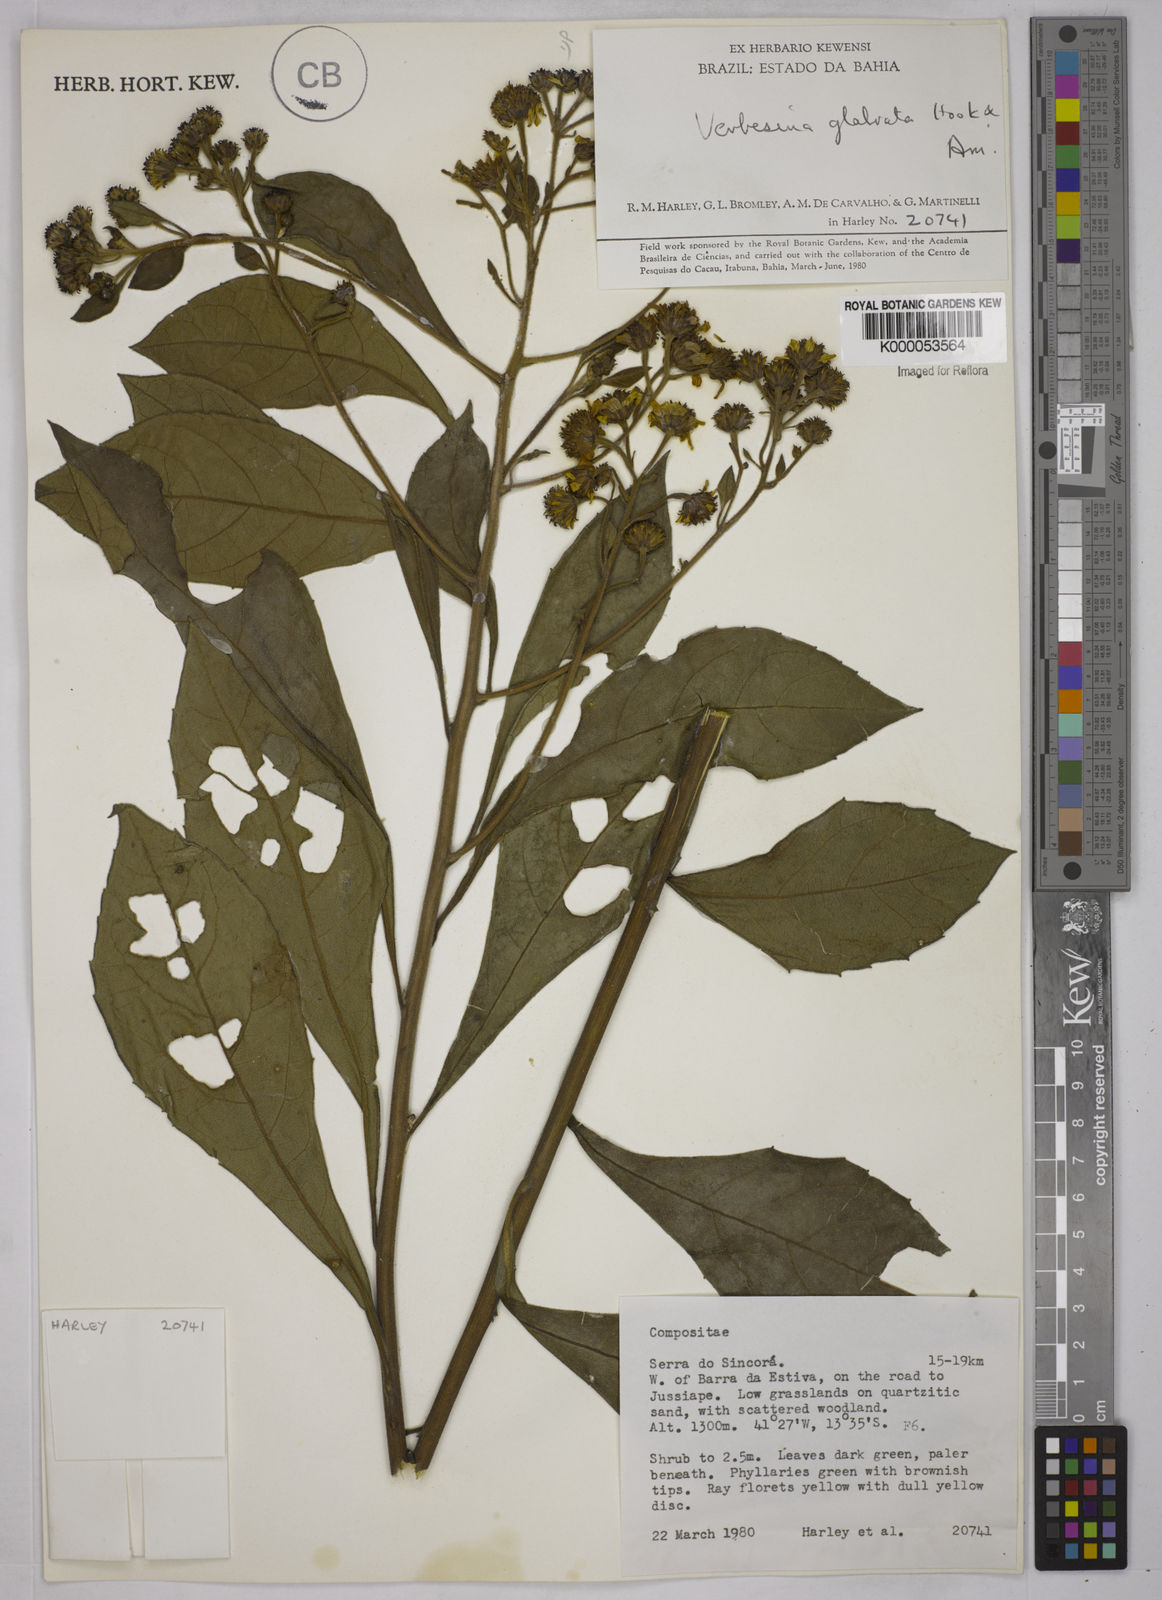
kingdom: Plantae
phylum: Tracheophyta
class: Magnoliopsida
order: Asterales
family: Asteraceae
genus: Verbesina
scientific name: Verbesina glabrata
